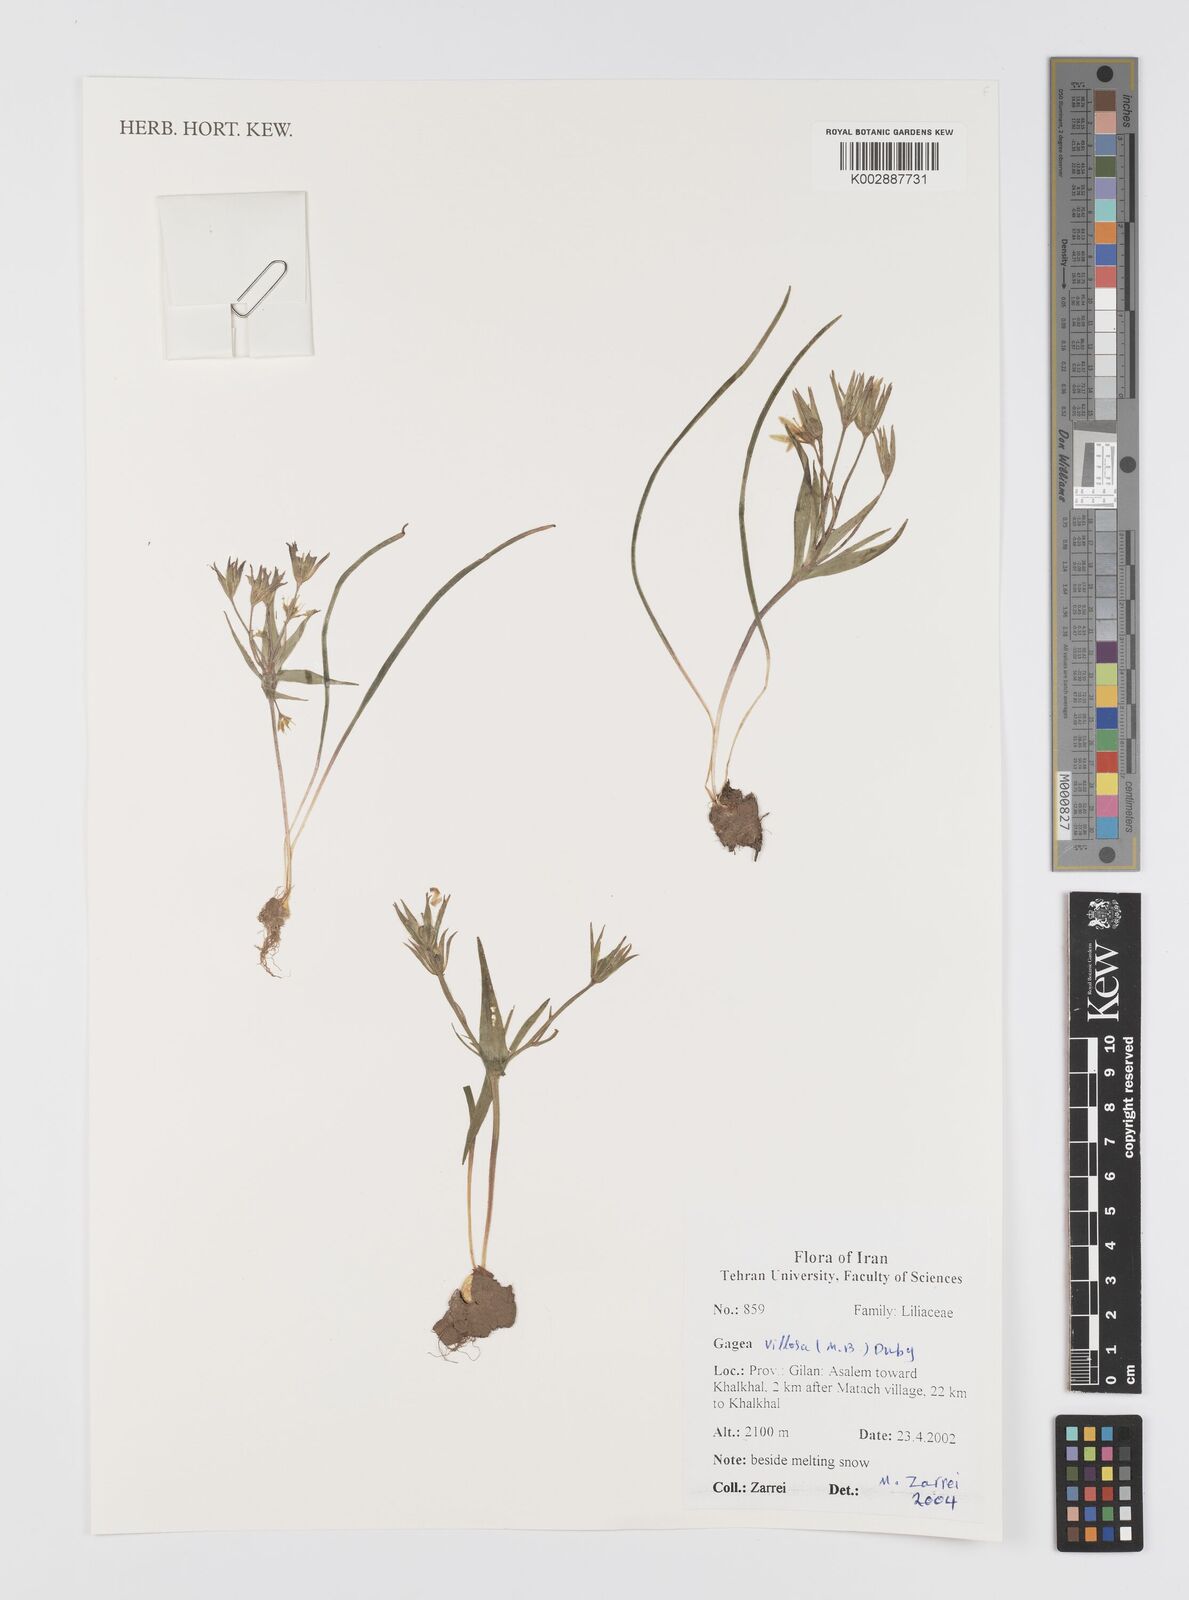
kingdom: Plantae
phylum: Tracheophyta
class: Liliopsida
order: Liliales
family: Liliaceae
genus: Gagea
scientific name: Gagea villosa
